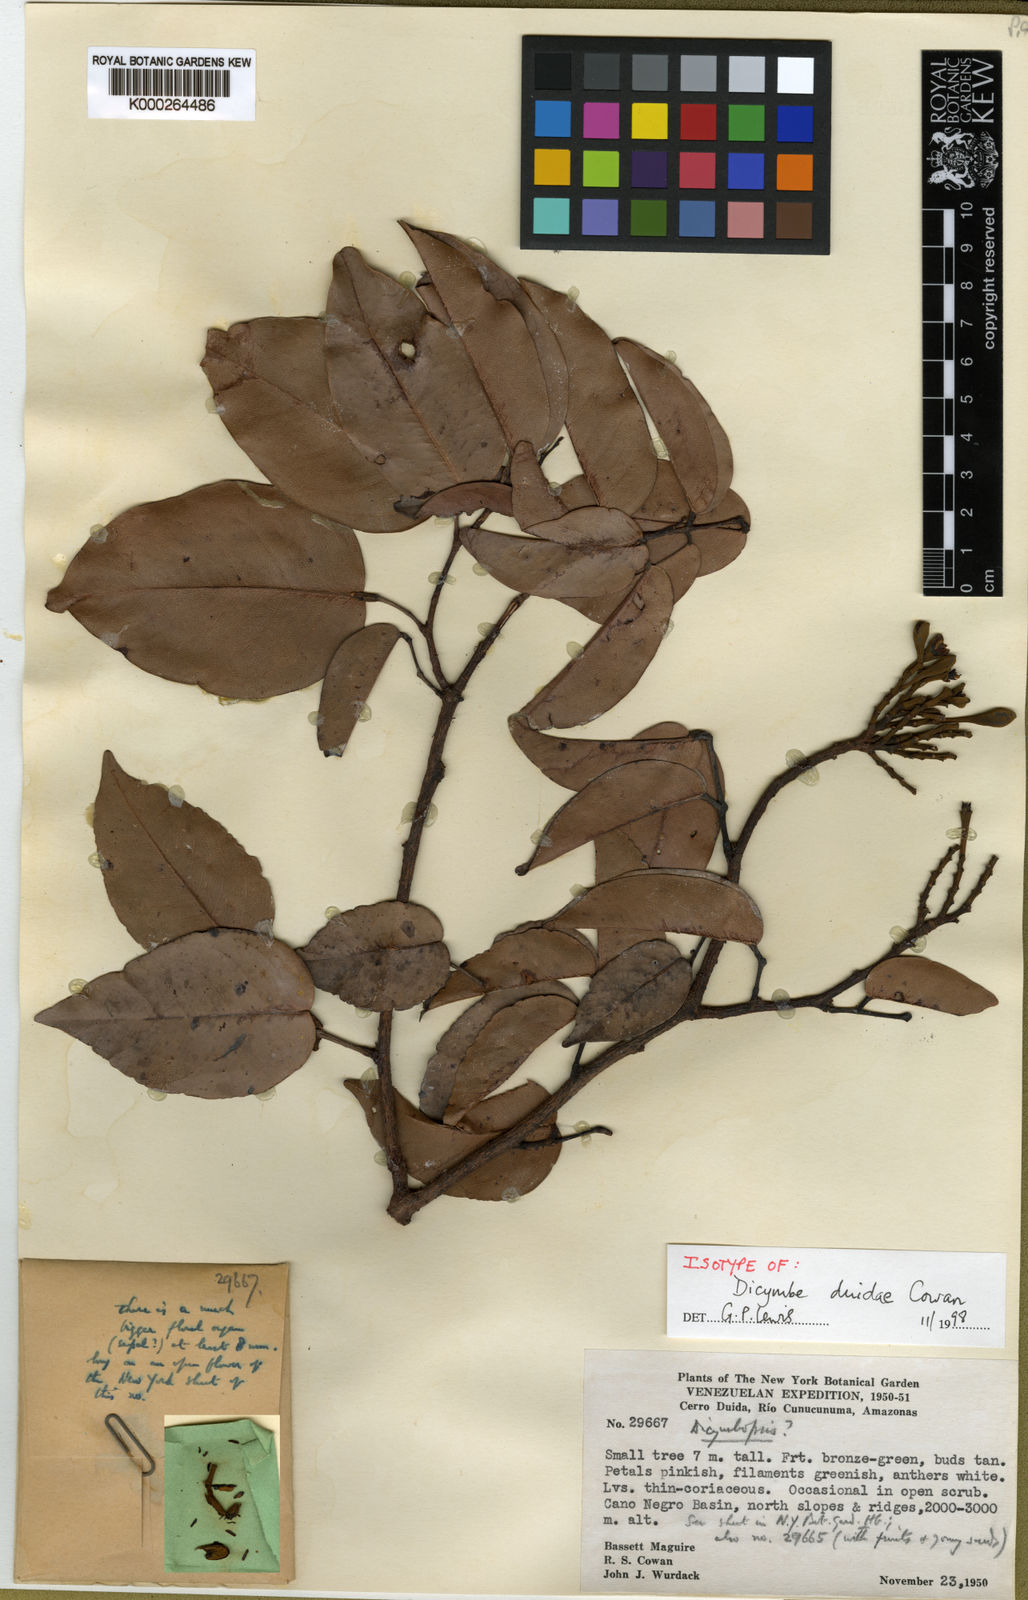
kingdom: Plantae
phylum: Tracheophyta
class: Magnoliopsida
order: Fabales
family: Fabaceae
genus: Dicymbe
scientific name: Dicymbe duidae
